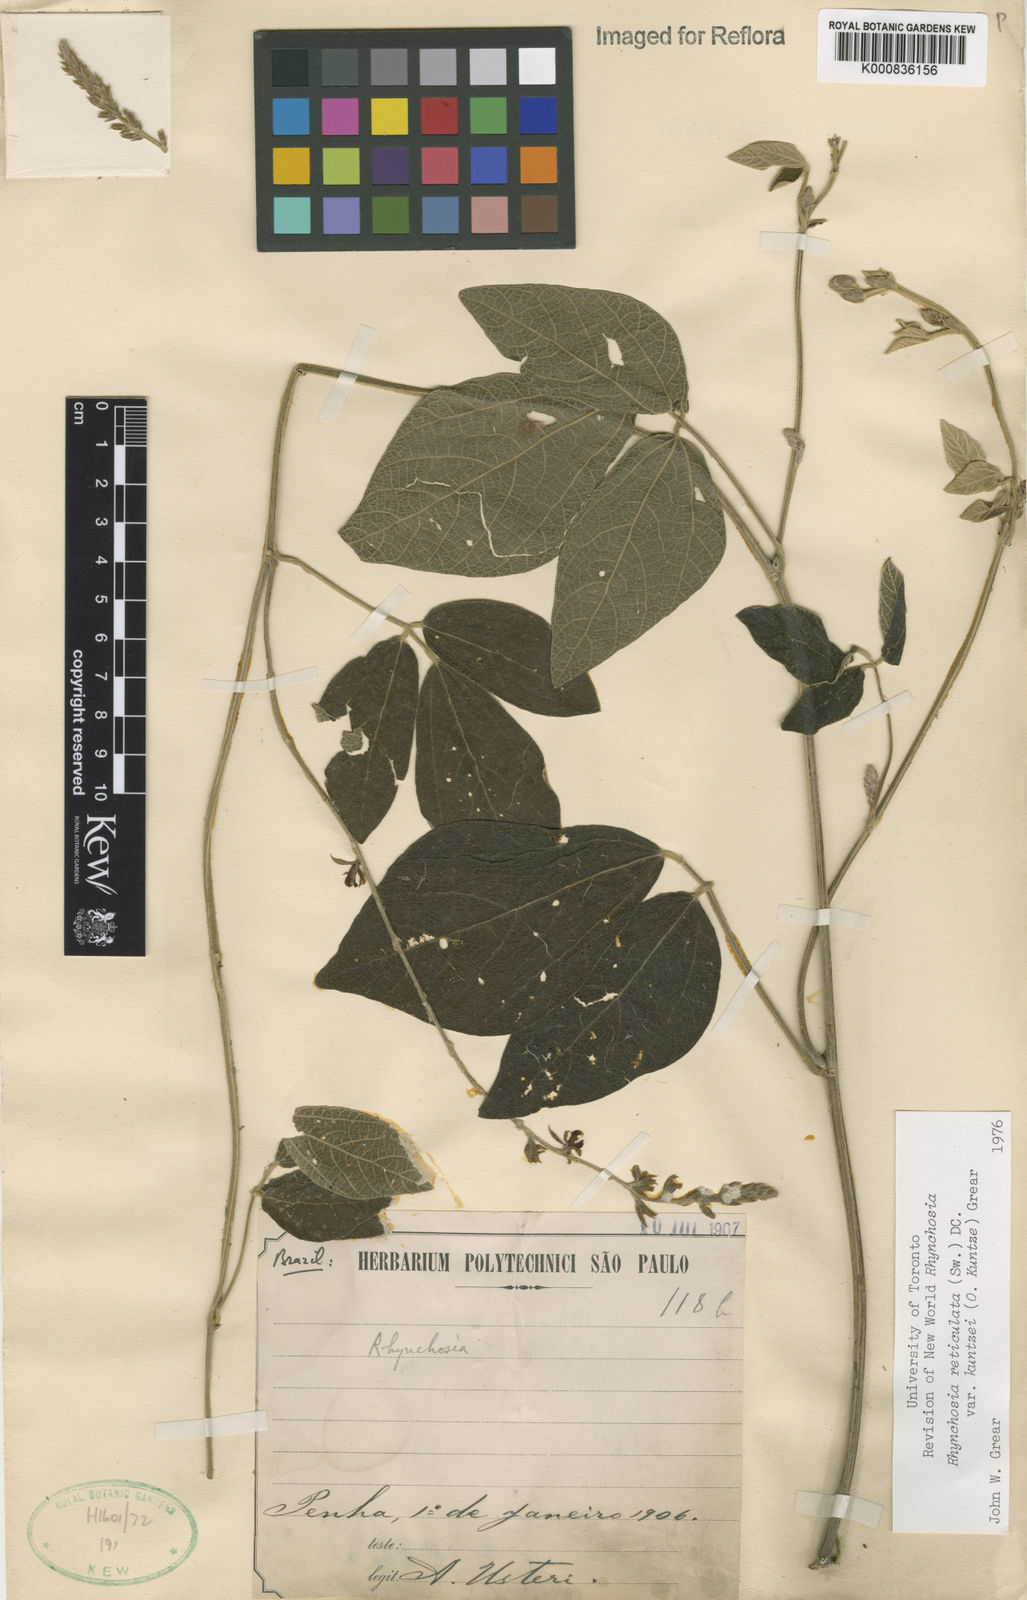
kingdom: Plantae
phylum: Tracheophyta
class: Magnoliopsida
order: Fabales
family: Fabaceae
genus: Rhynchosia
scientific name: Rhynchosia reticulata
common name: Pea withe
